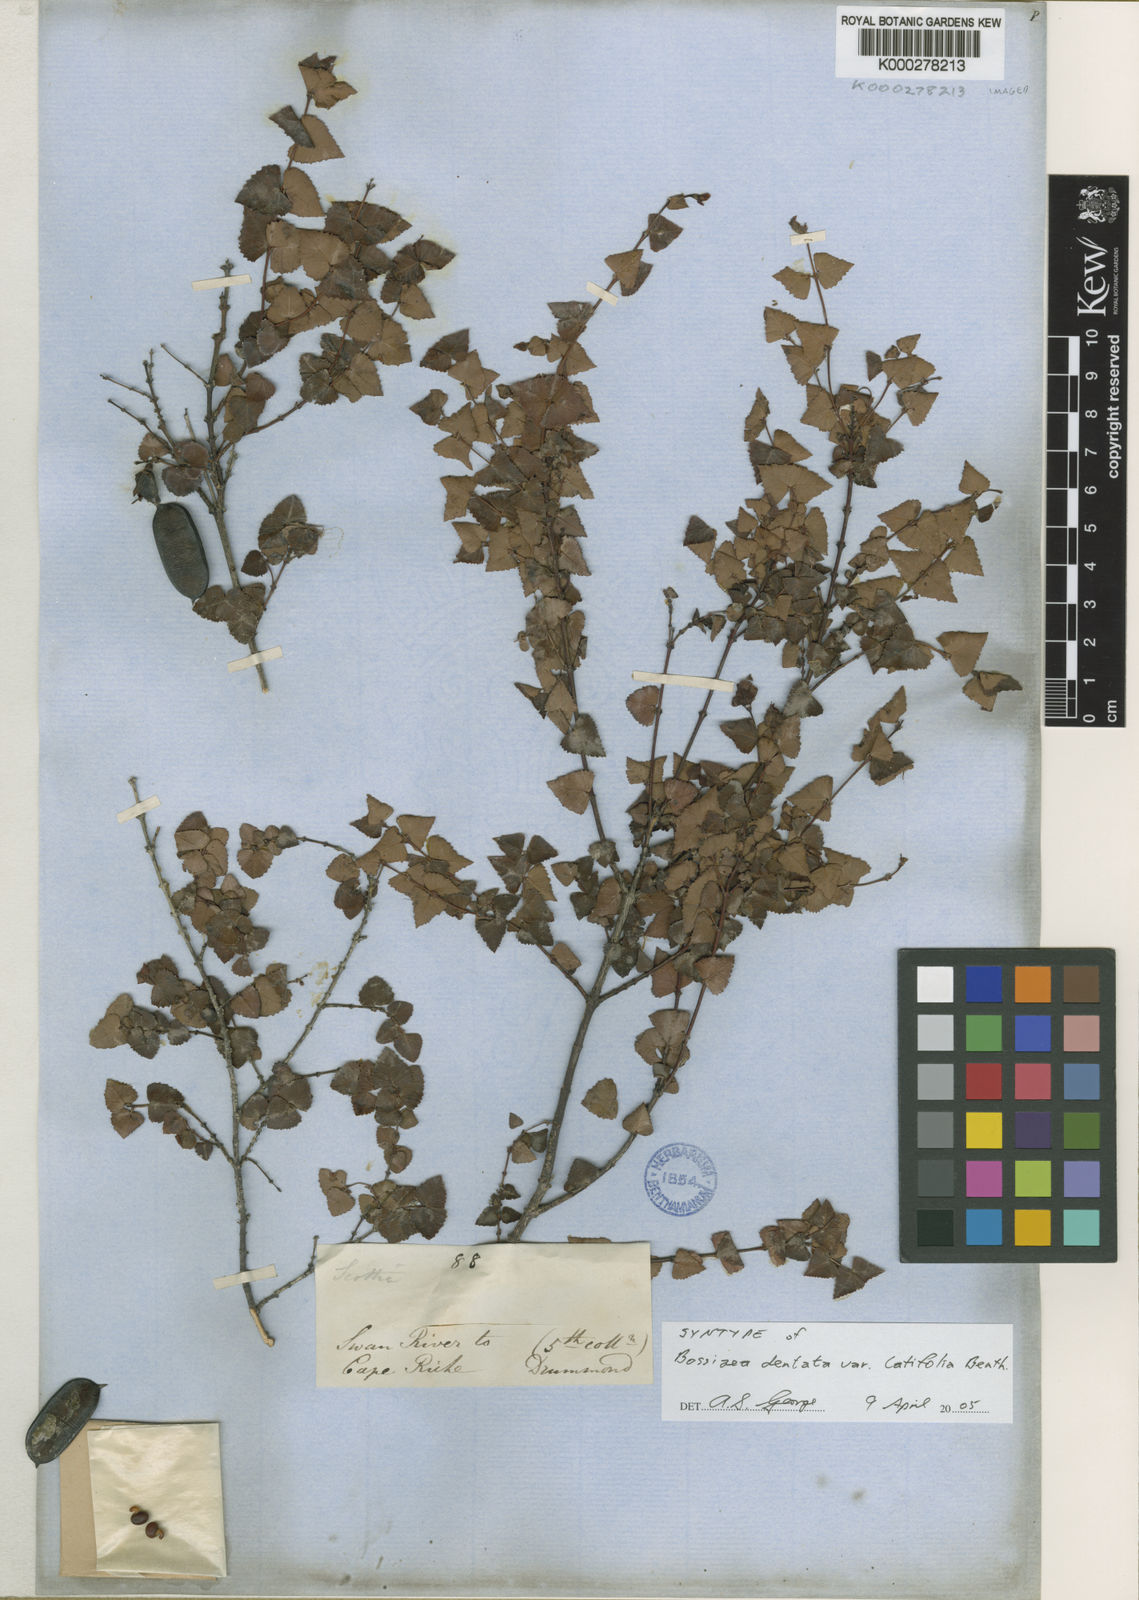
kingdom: Plantae
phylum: Tracheophyta
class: Magnoliopsida
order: Fabales
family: Fabaceae
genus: Bossiaea
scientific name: Bossiaea dentata
